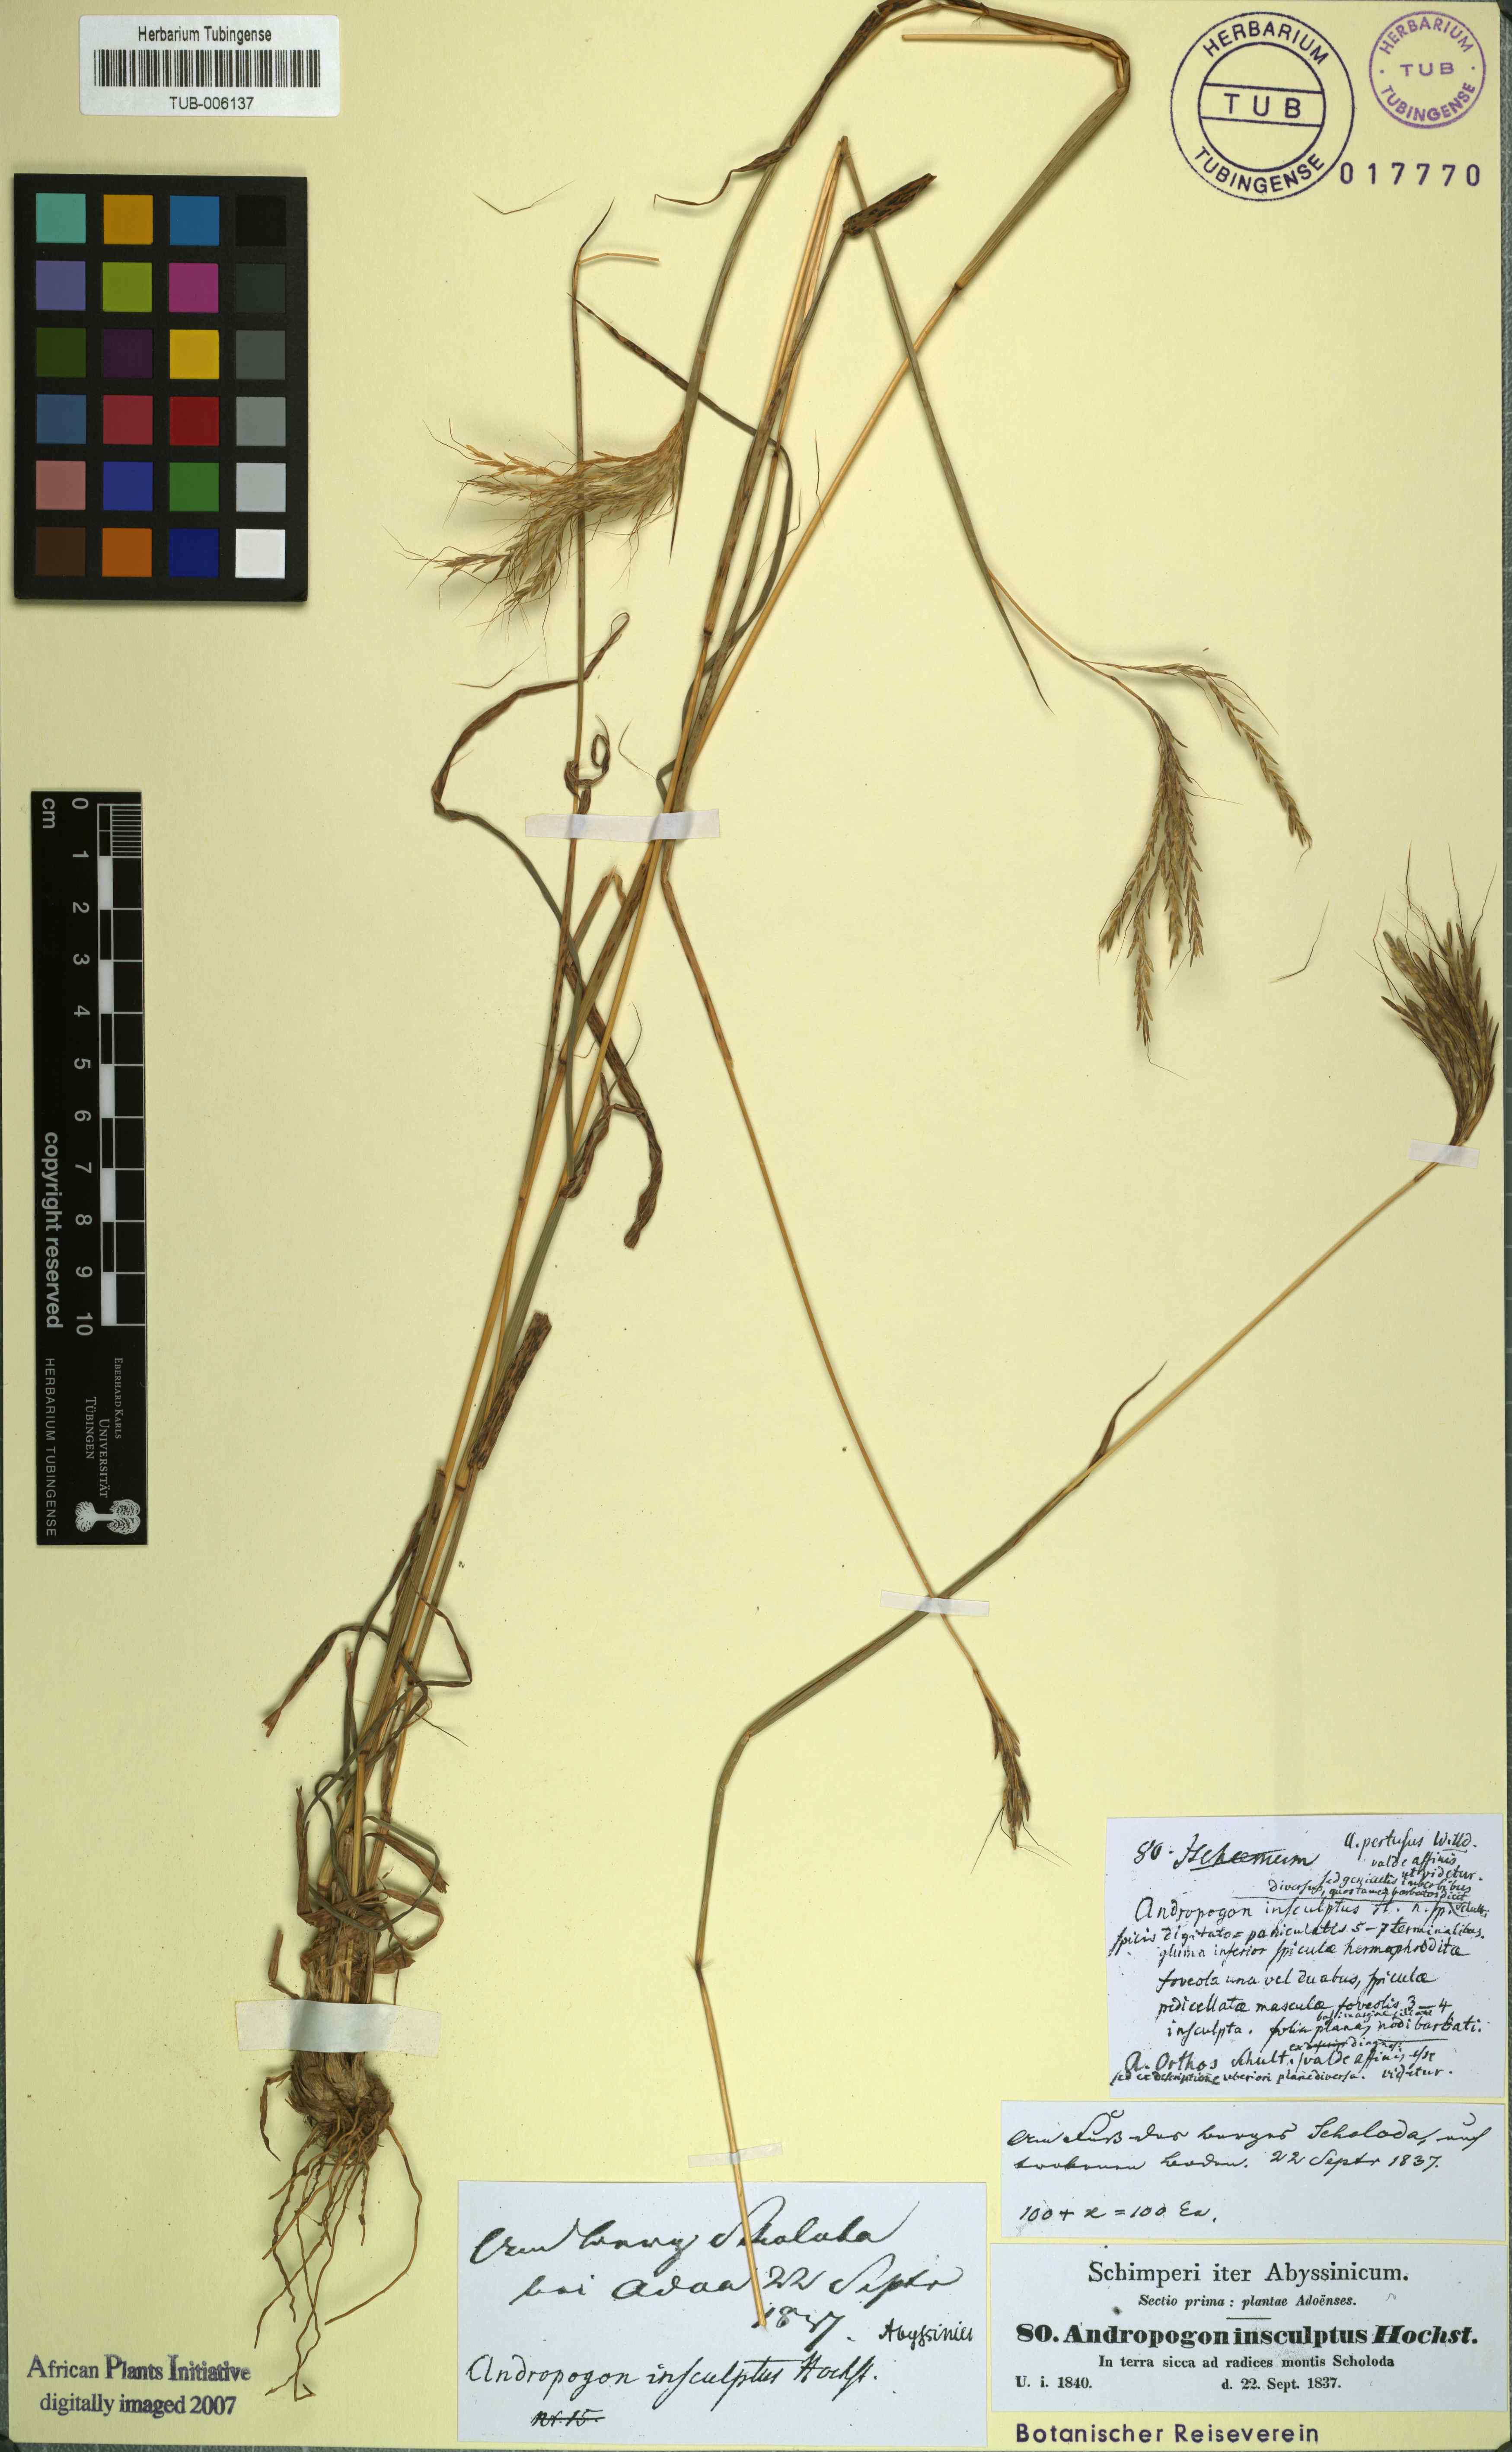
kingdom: Plantae
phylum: Tracheophyta
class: Liliopsida
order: Poales
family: Poaceae
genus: Bothriochloa
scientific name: Bothriochloa insculpta
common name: Creeping-bluegrass
